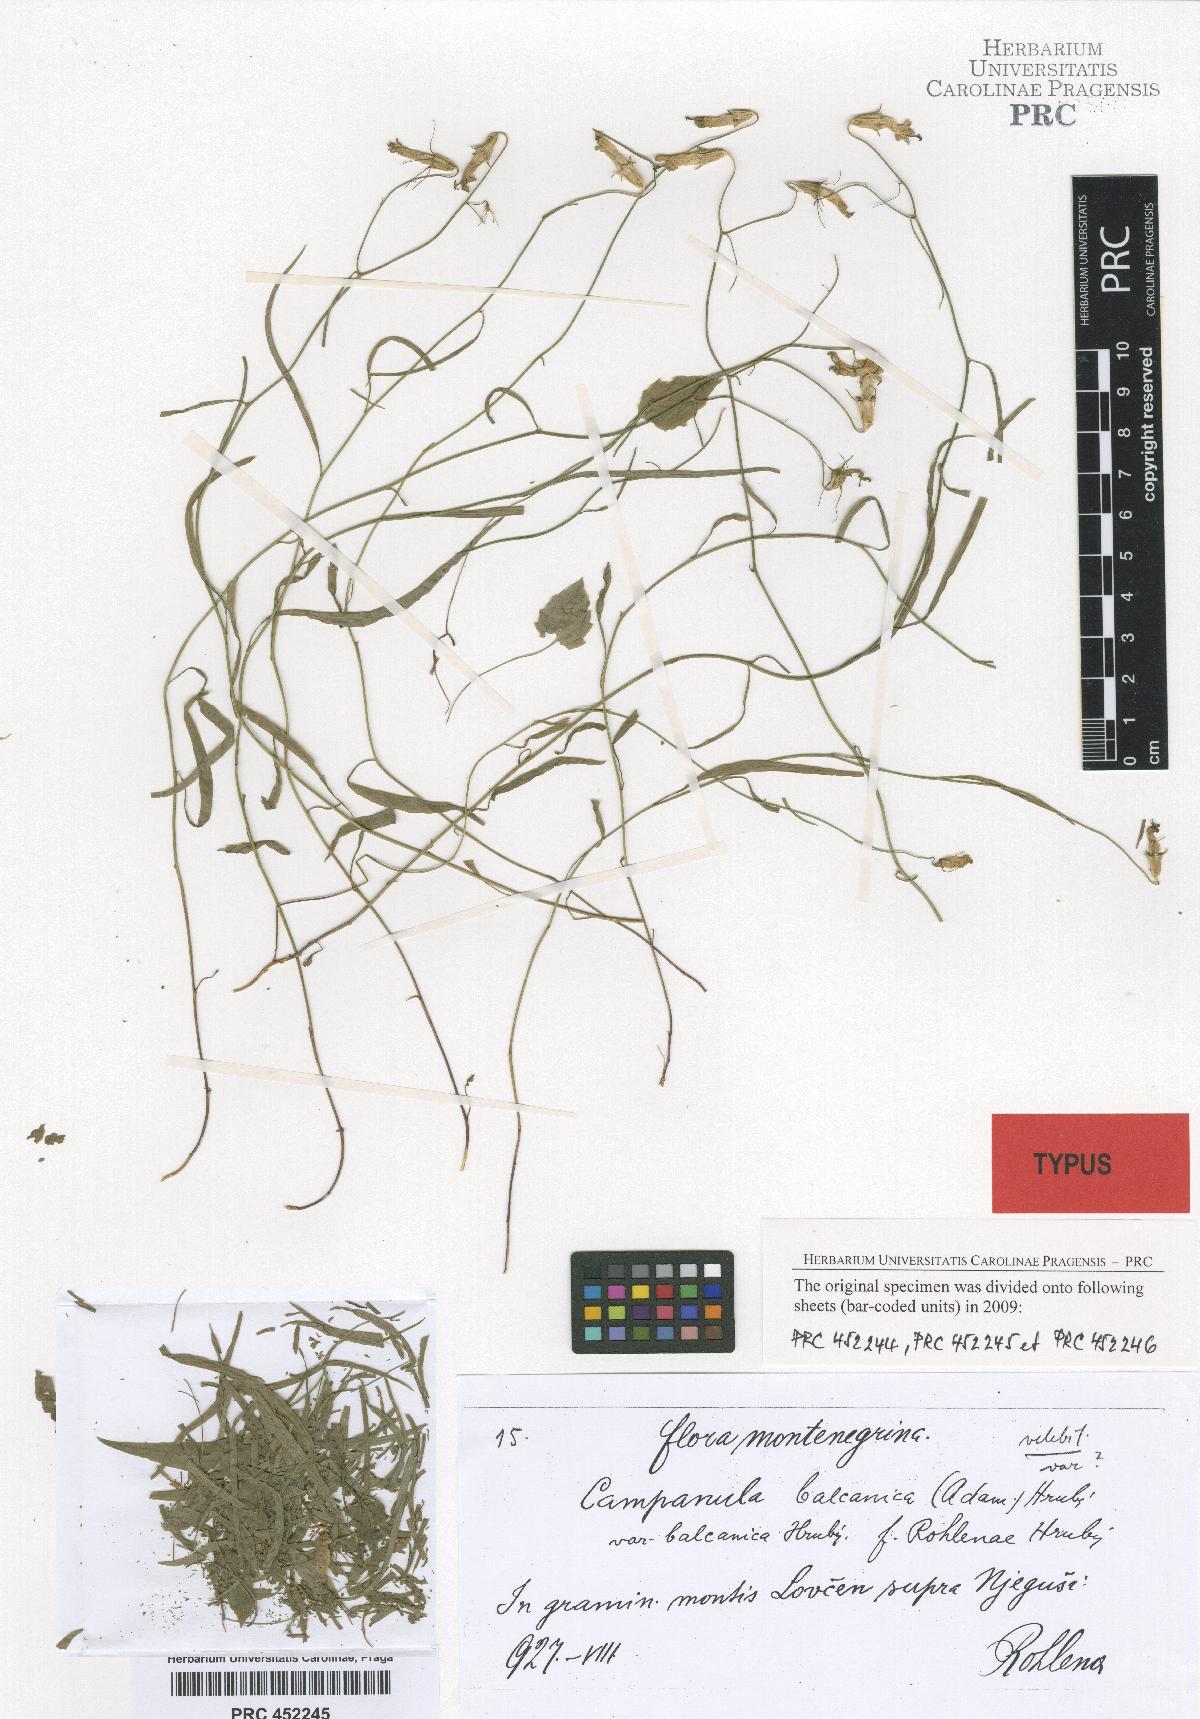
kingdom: Plantae
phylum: Tracheophyta
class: Magnoliopsida
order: Asterales
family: Campanulaceae
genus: Campanula
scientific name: Campanula velebitica
